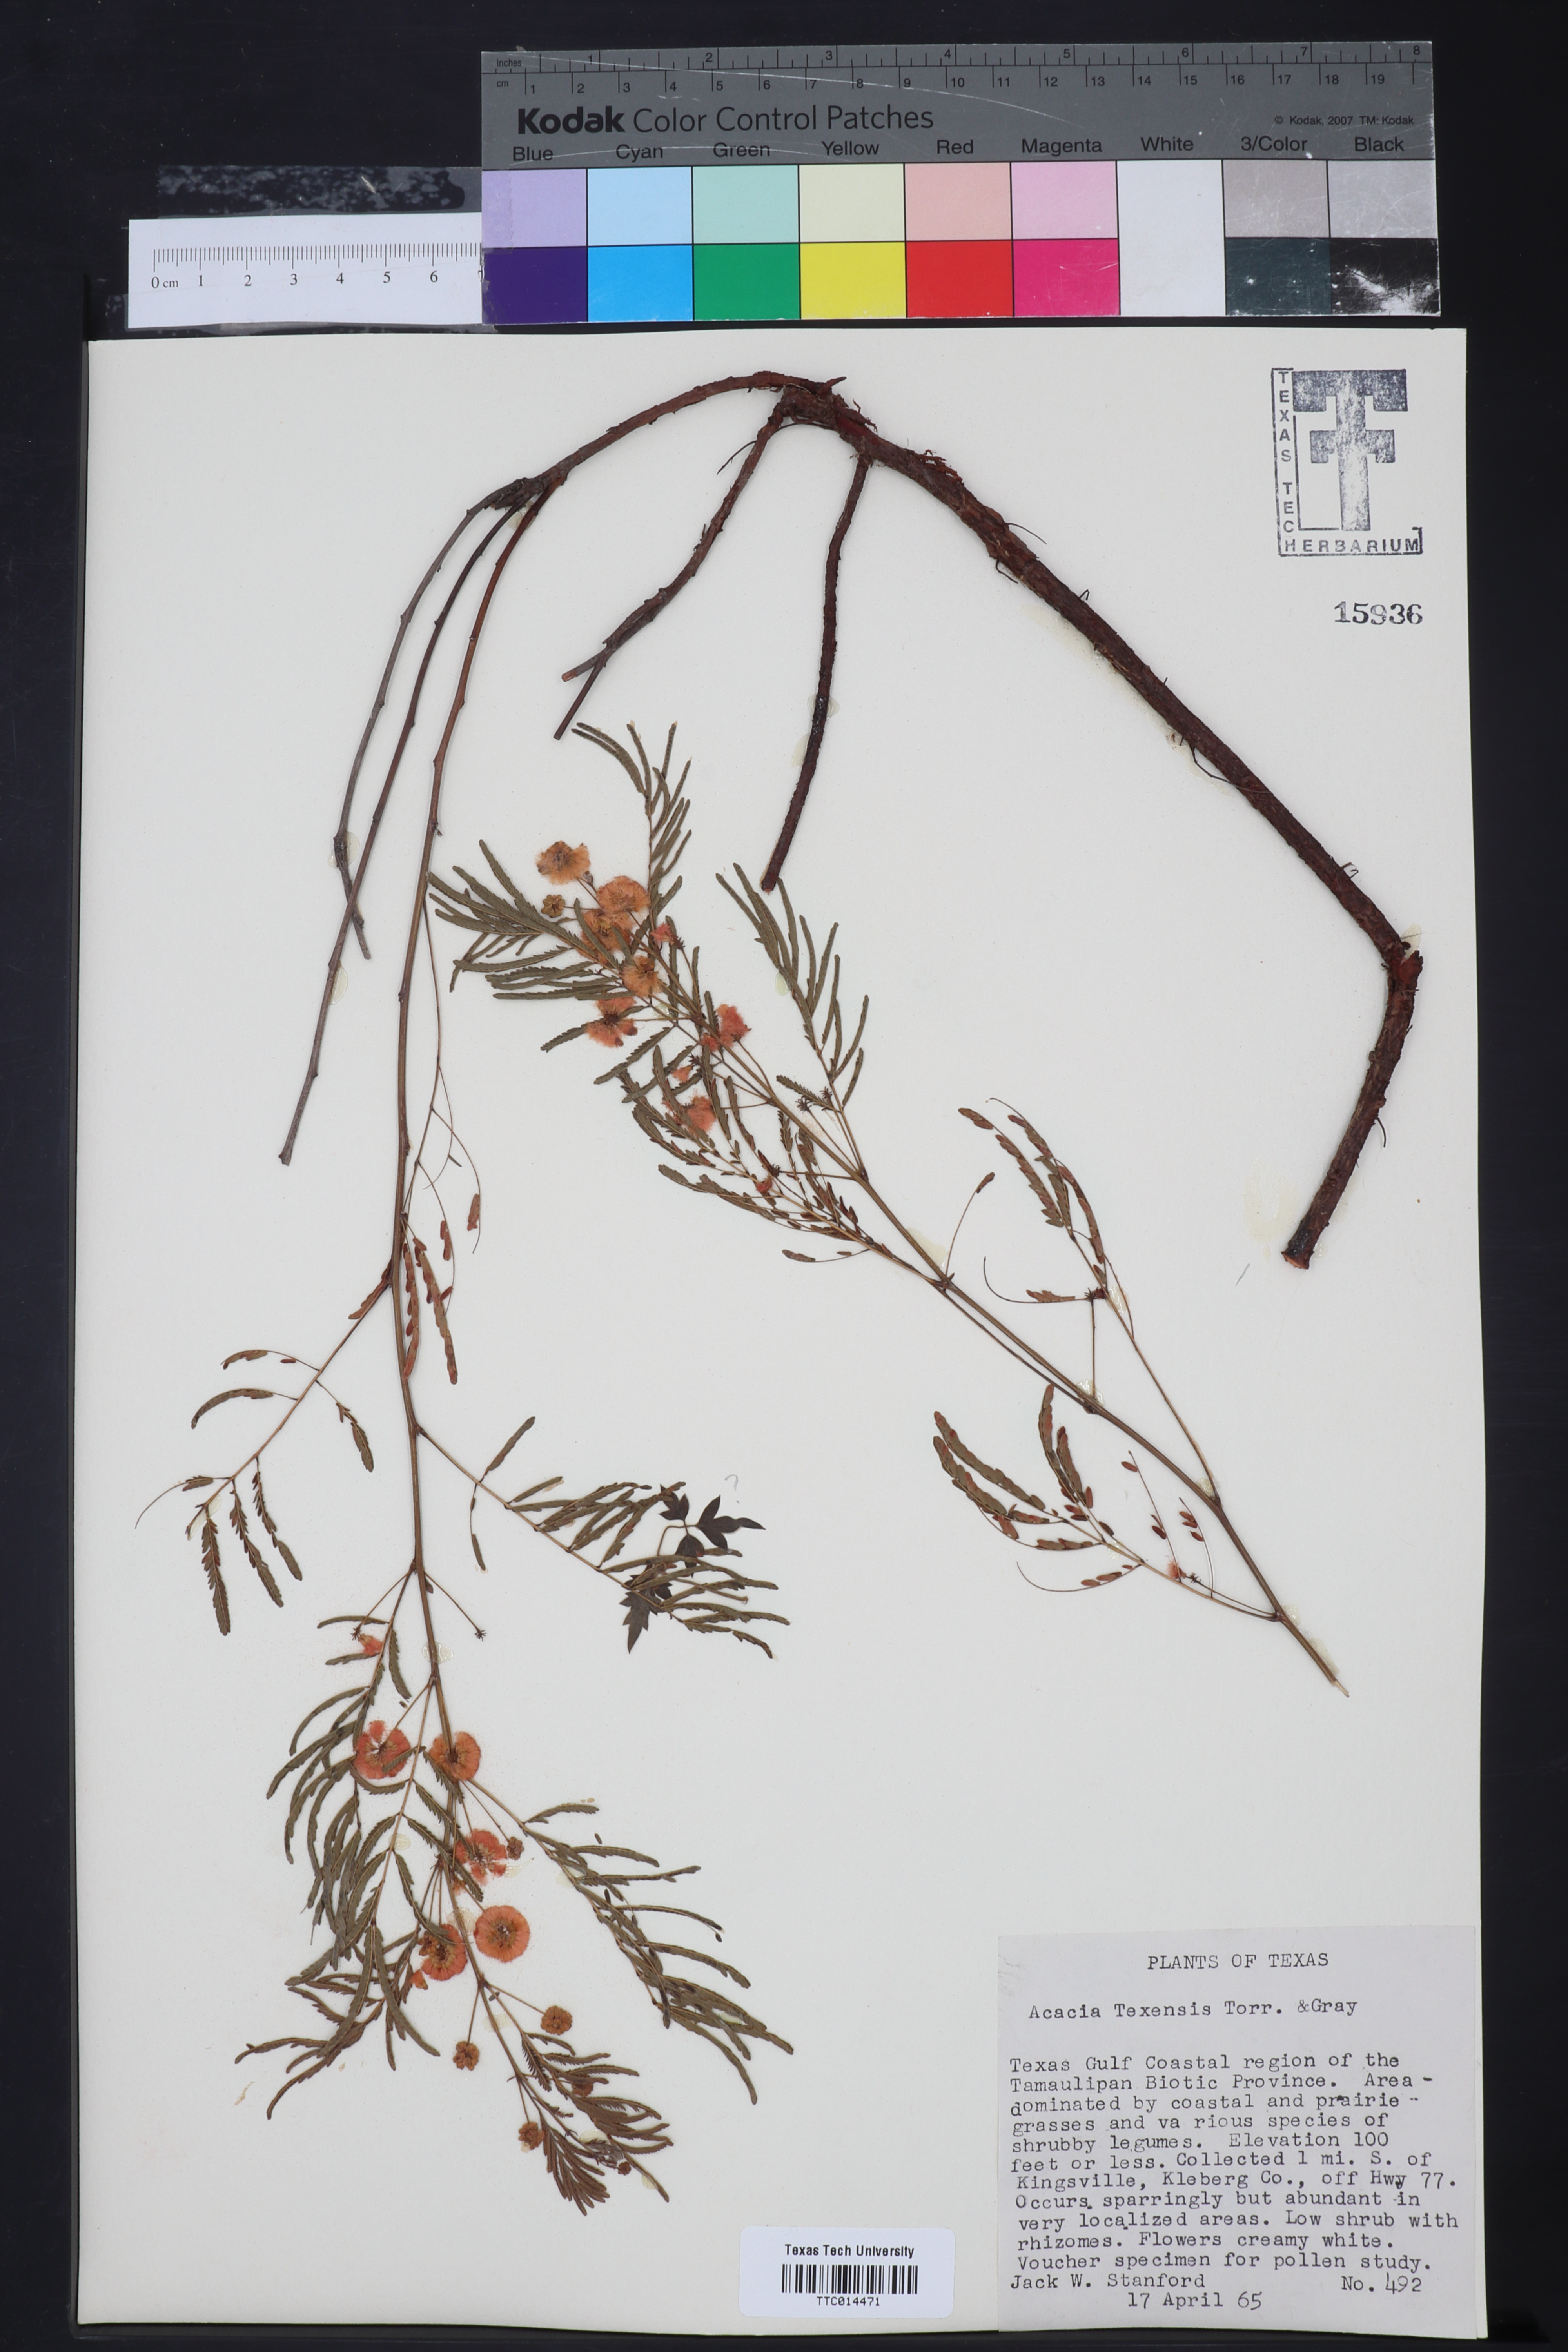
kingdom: Plantae
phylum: Tracheophyta
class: Magnoliopsida
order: Fabales
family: Fabaceae
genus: Acaciella
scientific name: Acaciella angustissima
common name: Prairie acacia
